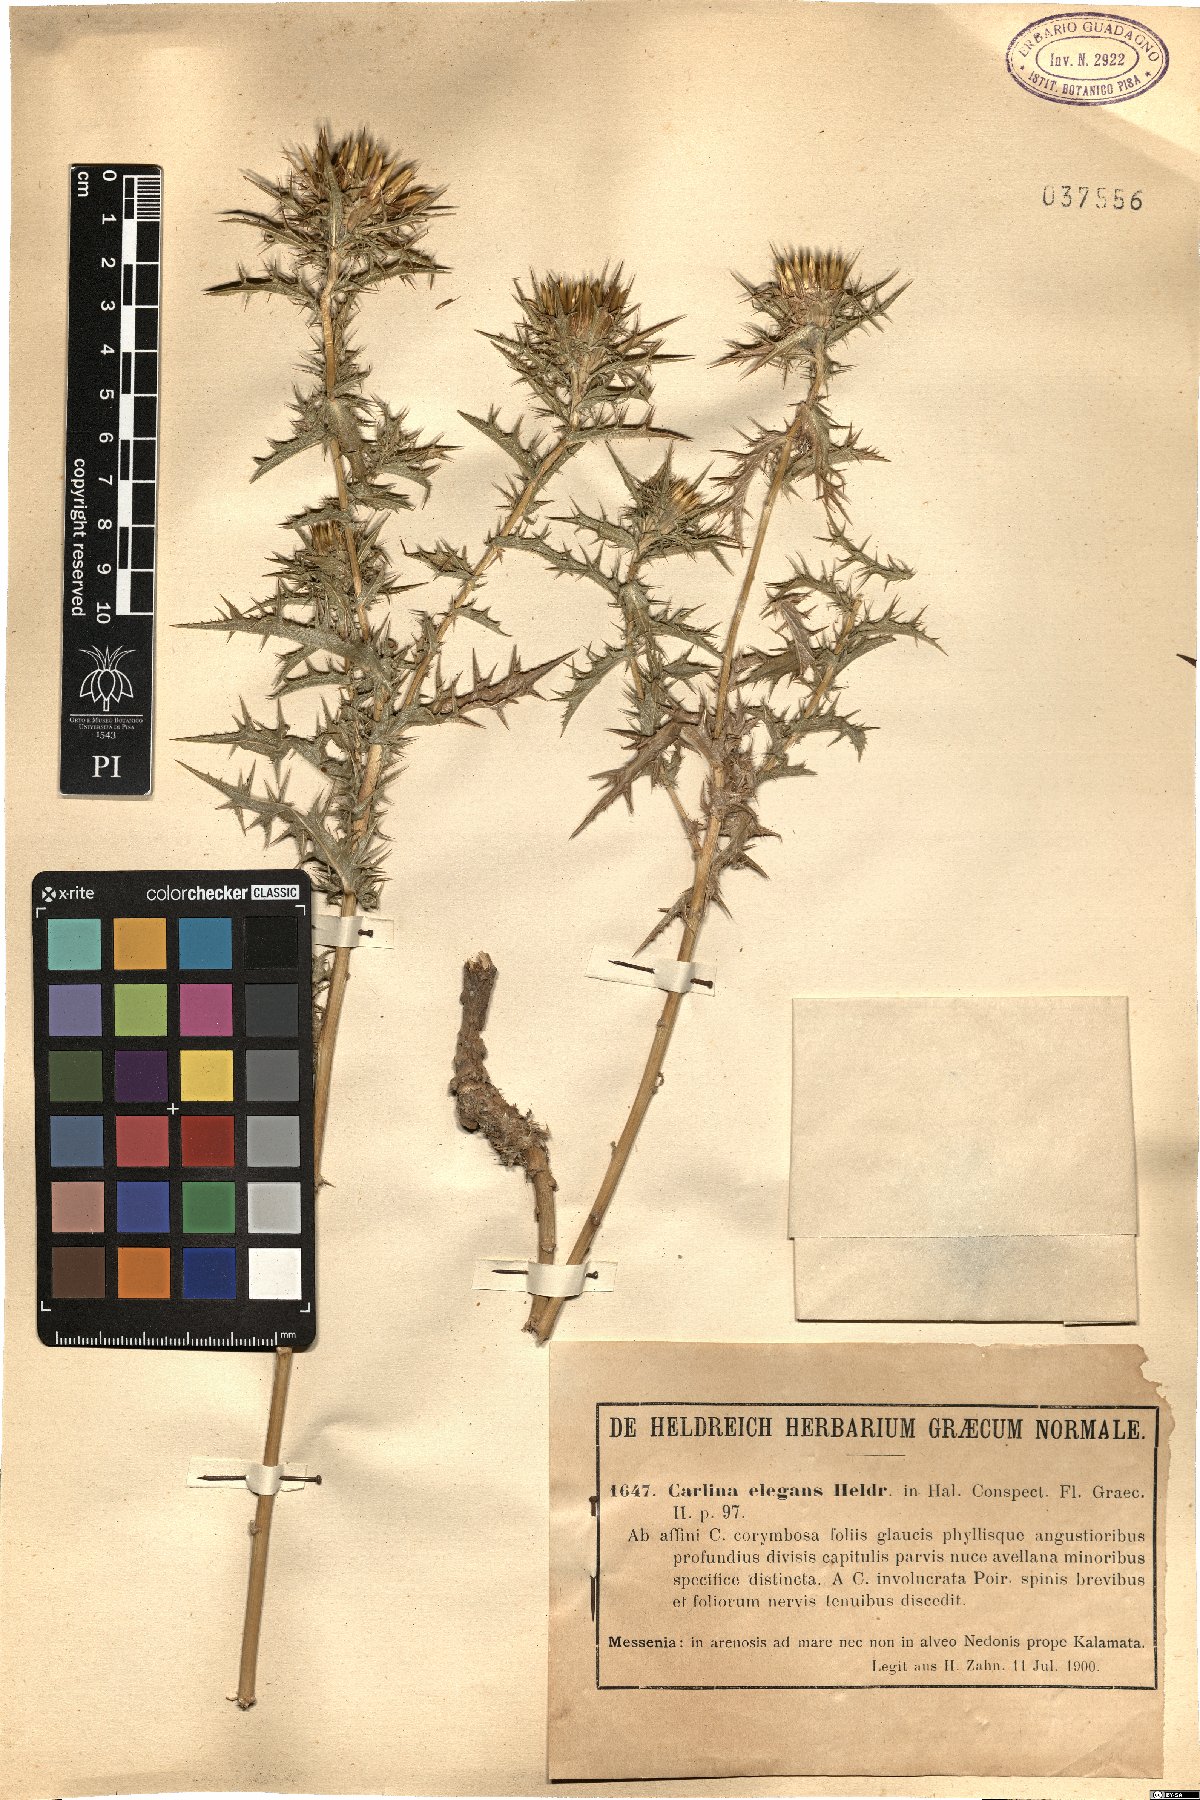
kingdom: Plantae
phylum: Tracheophyta
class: Magnoliopsida
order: Asterales
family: Asteraceae
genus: Carlina
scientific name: Carlina corymbosa
